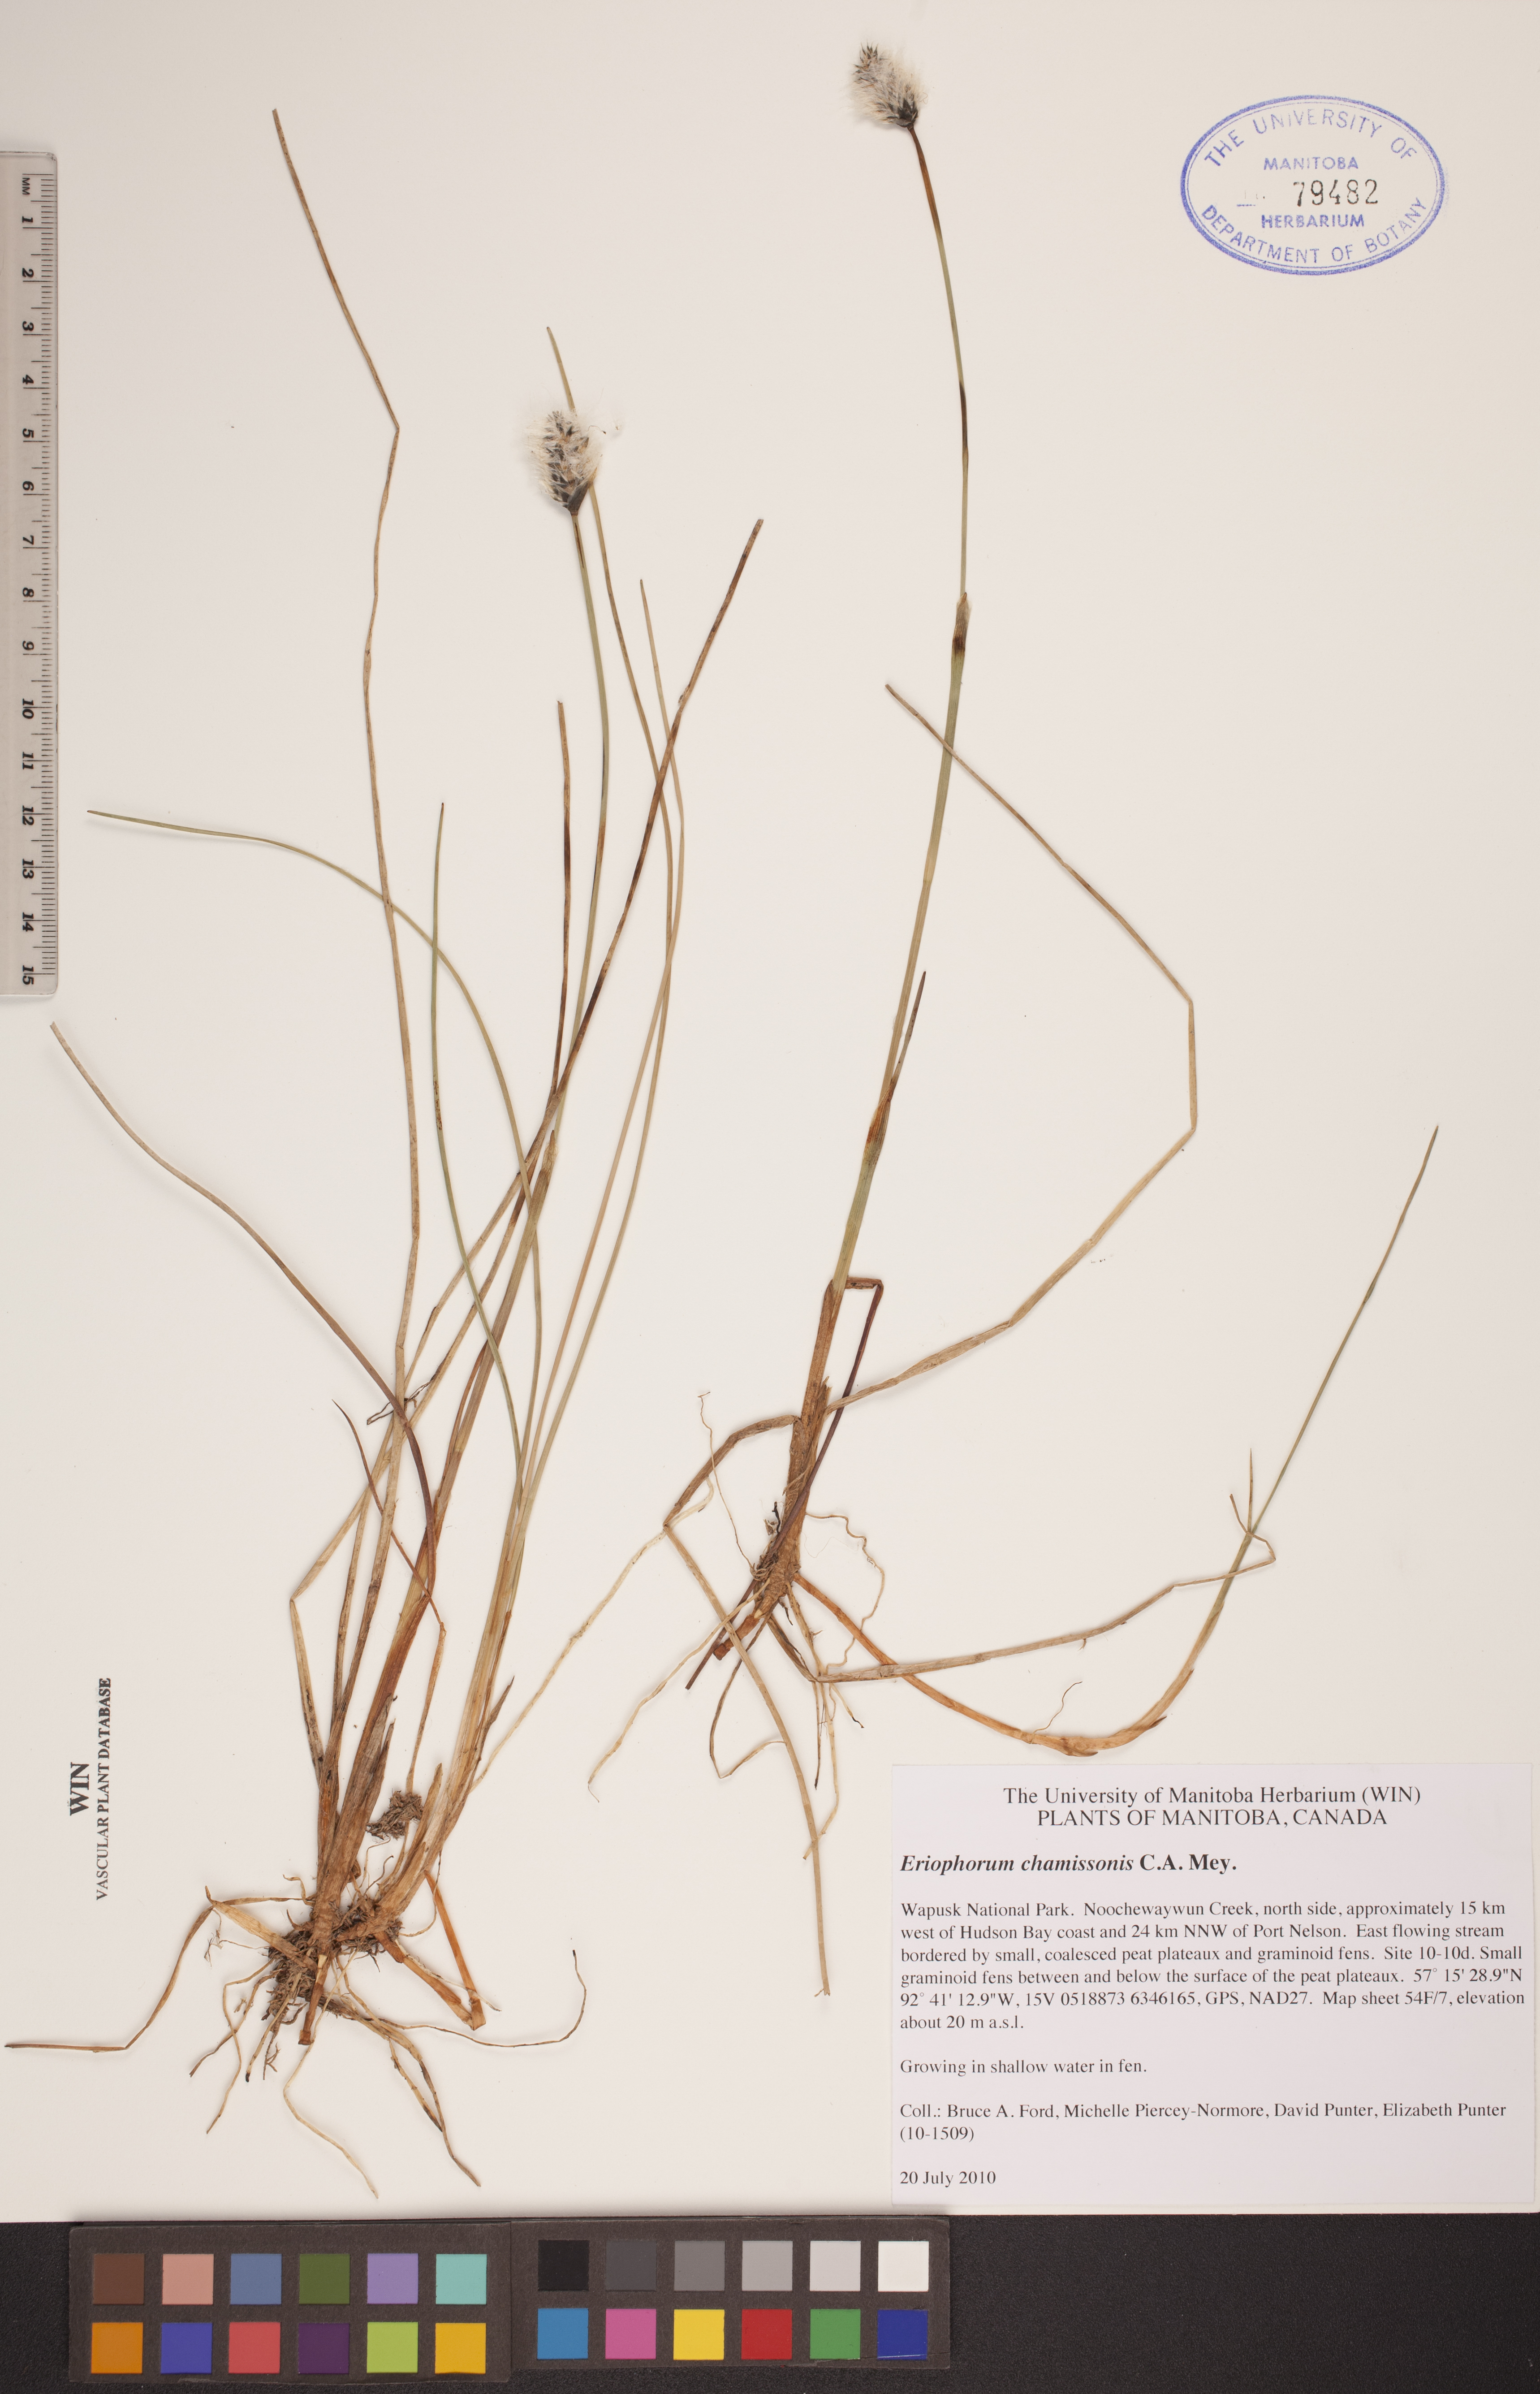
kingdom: Plantae
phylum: Tracheophyta
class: Liliopsida
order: Poales
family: Cyperaceae
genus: Eriophorum
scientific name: Eriophorum chamissonis
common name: Chamisso's cottongrass
